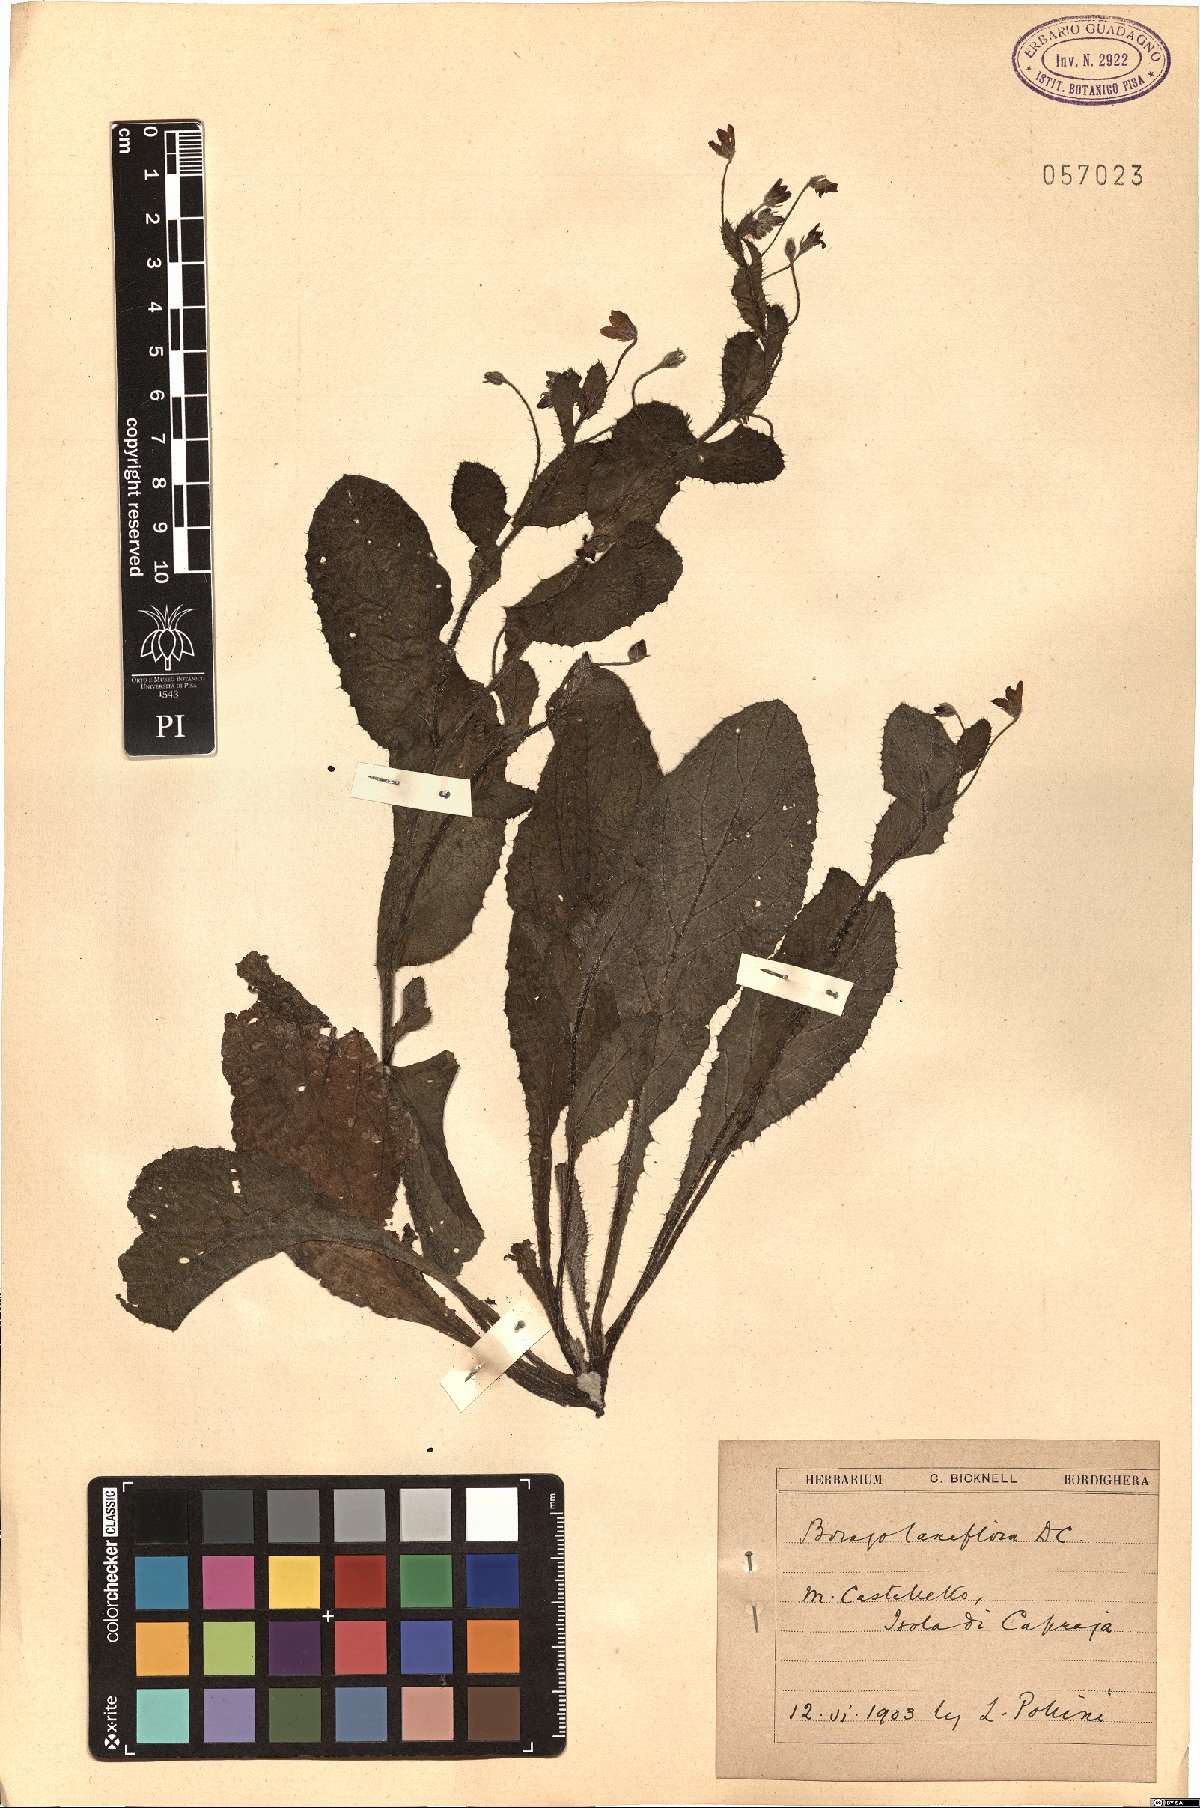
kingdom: Plantae
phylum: Tracheophyta
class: Magnoliopsida
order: Boraginales
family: Boraginaceae
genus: Borago
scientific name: Borago pygmaea
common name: Slender borage
